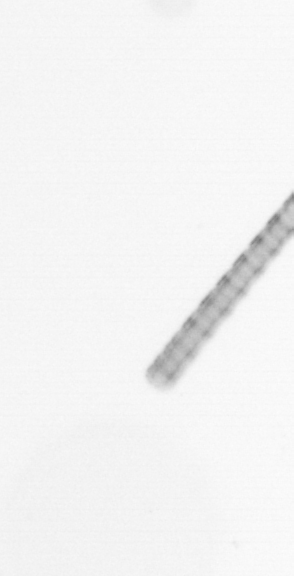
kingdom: Chromista
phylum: Ochrophyta
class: Bacillariophyceae
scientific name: Bacillariophyceae
